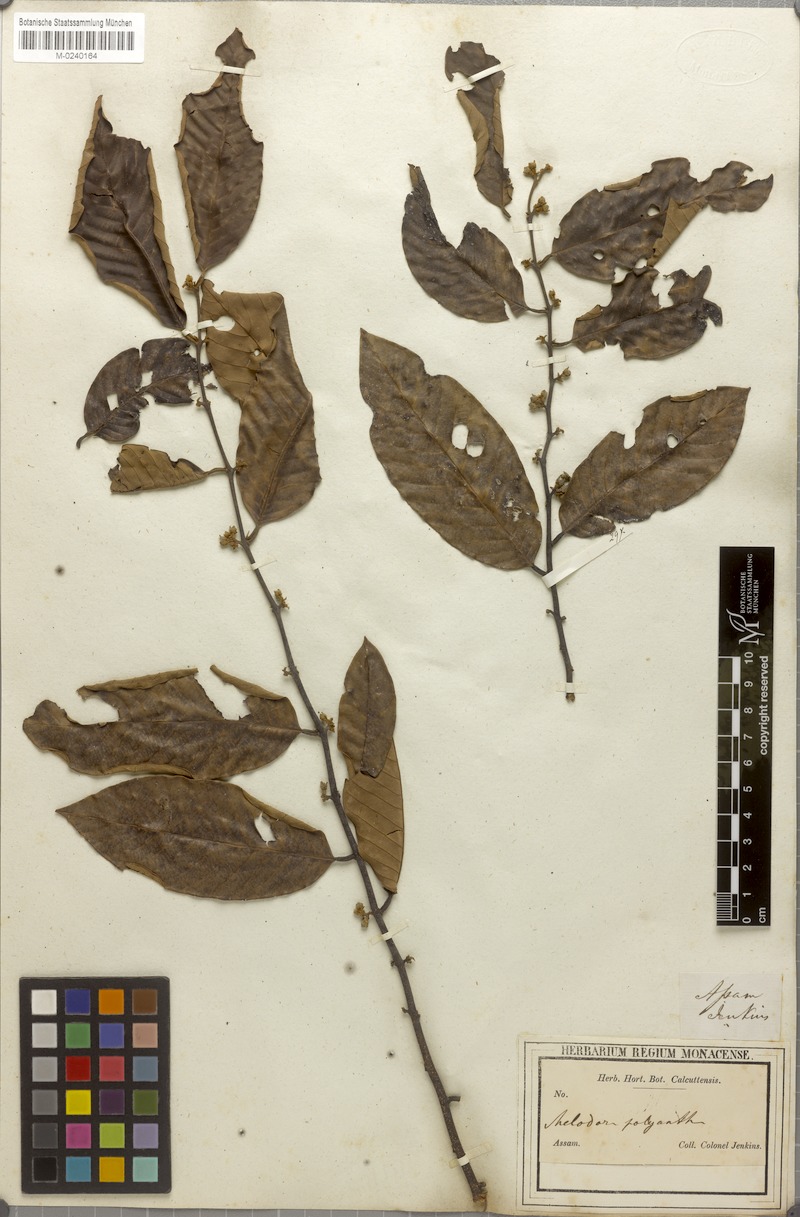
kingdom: Plantae
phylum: Tracheophyta
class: Magnoliopsida
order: Magnoliales
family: Annonaceae
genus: Fissistigma
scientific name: Fissistigma polyanthum
